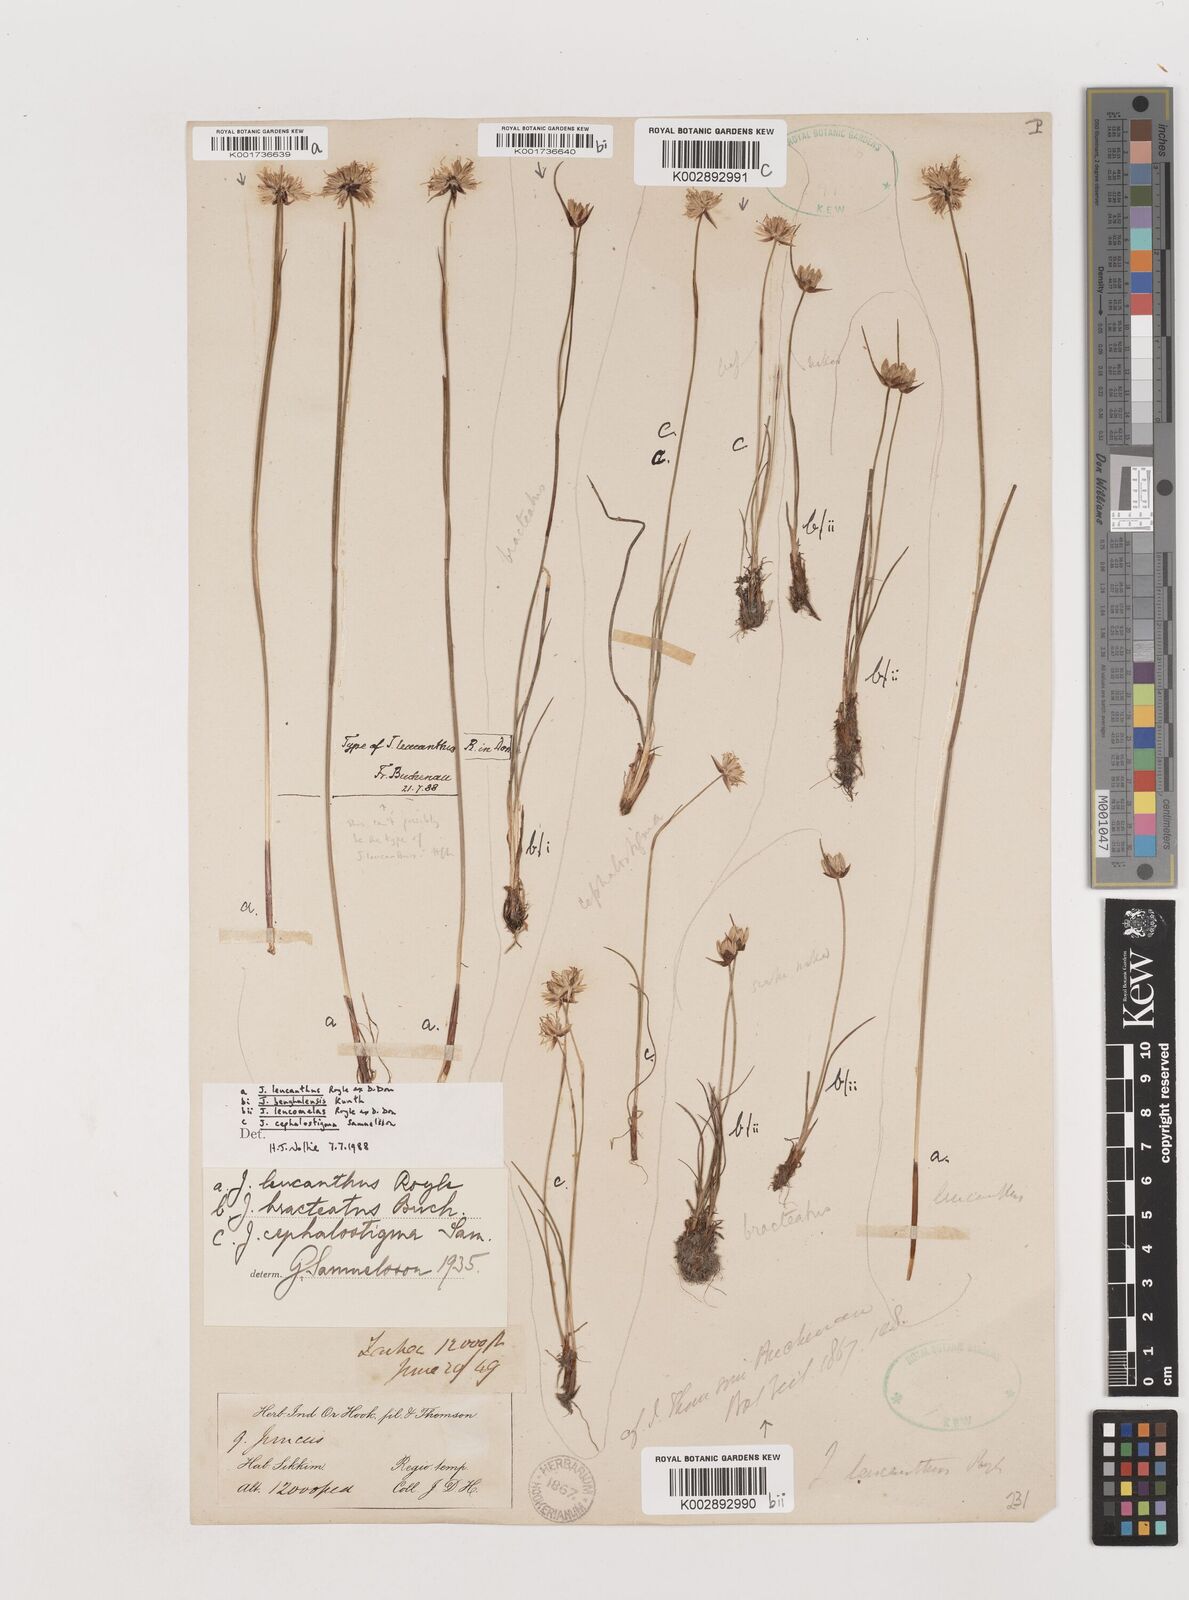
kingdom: Plantae
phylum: Tracheophyta
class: Liliopsida
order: Poales
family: Juncaceae
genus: Juncus
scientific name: Juncus
